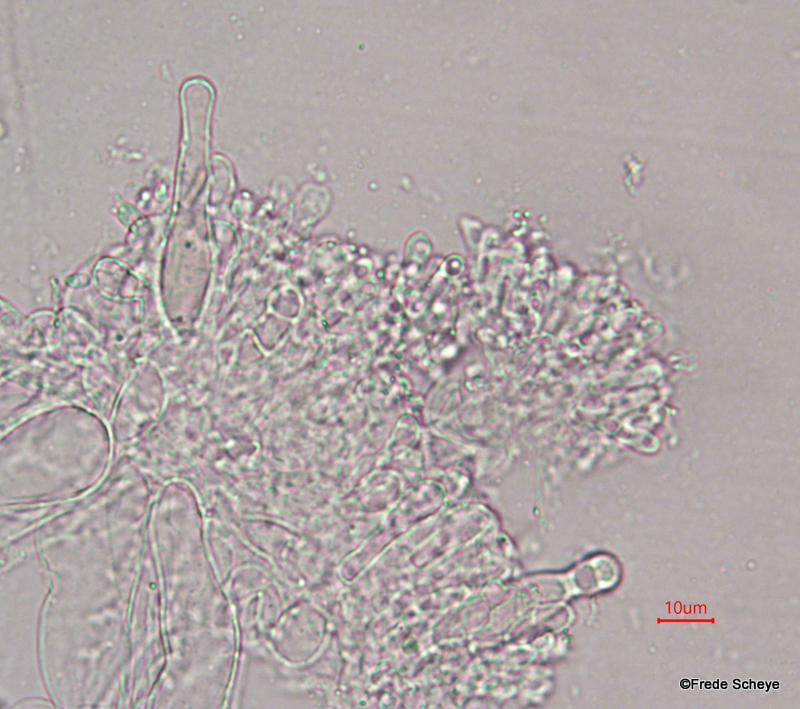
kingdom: Fungi
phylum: Basidiomycota
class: Agaricomycetes
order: Hymenochaetales
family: Rickenellaceae
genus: Rickenella
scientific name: Rickenella swartzii
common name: finstokket mosnavlehat
